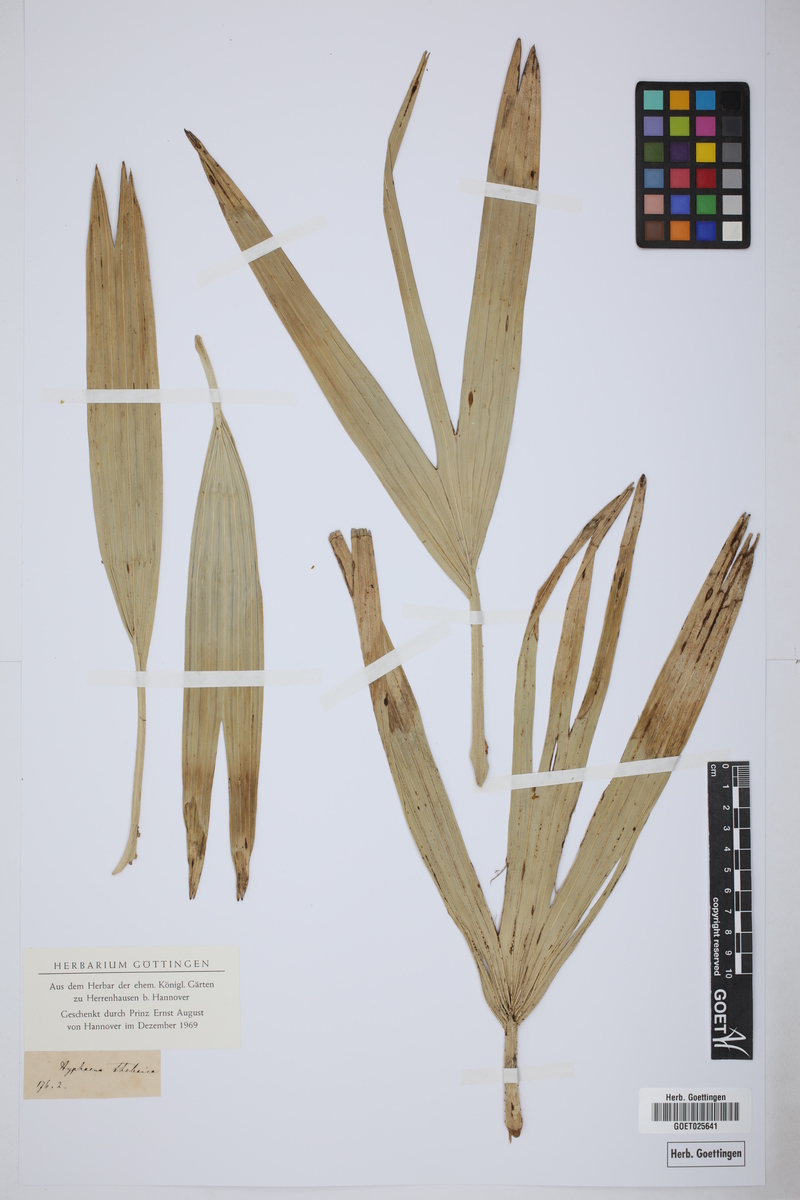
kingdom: Plantae
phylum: Tracheophyta
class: Liliopsida
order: Arecales
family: Arecaceae
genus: Hyphaene
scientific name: Hyphaene thebaica
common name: Doum palm
